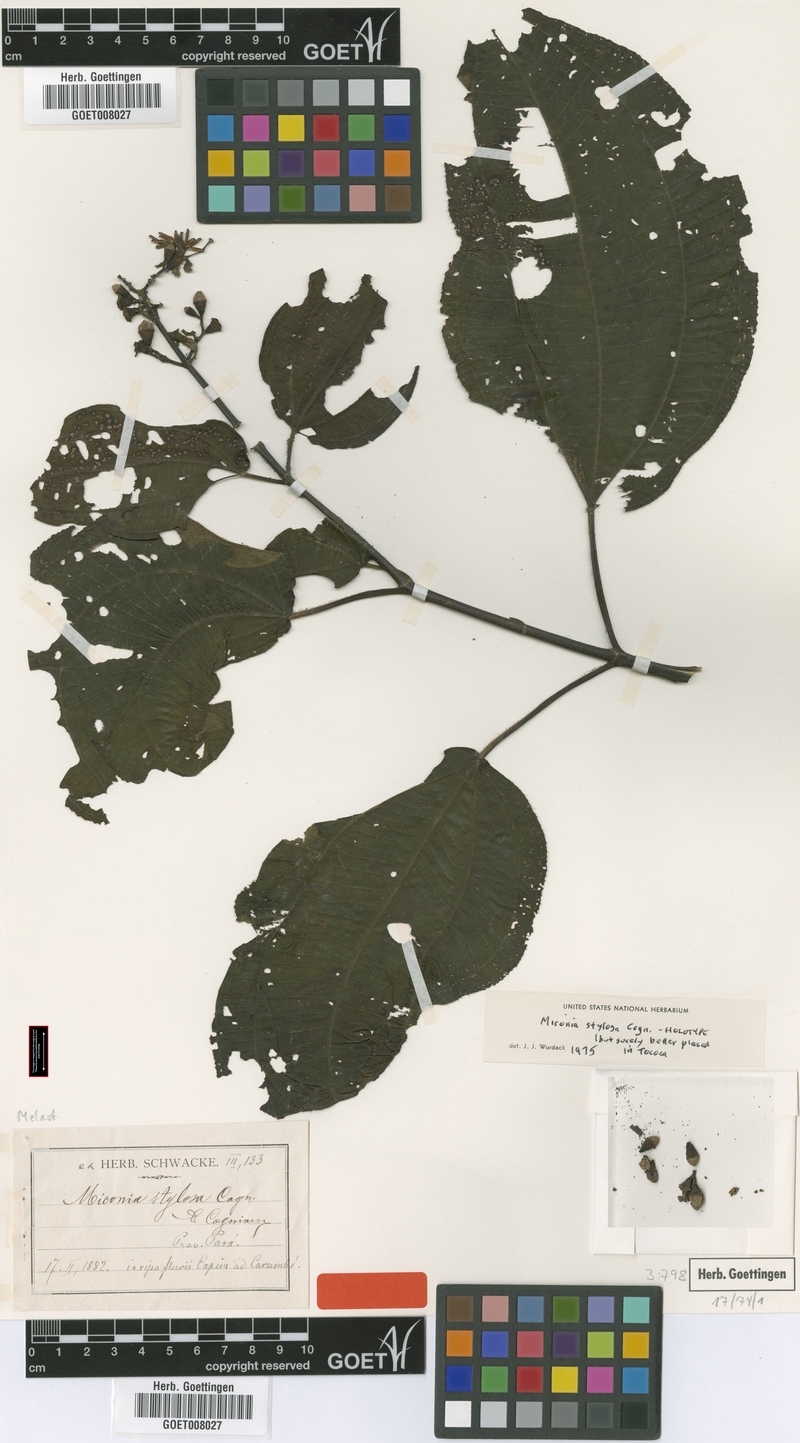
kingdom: Plantae
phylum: Tracheophyta
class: Magnoliopsida
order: Myrtales
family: Melastomataceae
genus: Miconia
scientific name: Miconia stylosa
